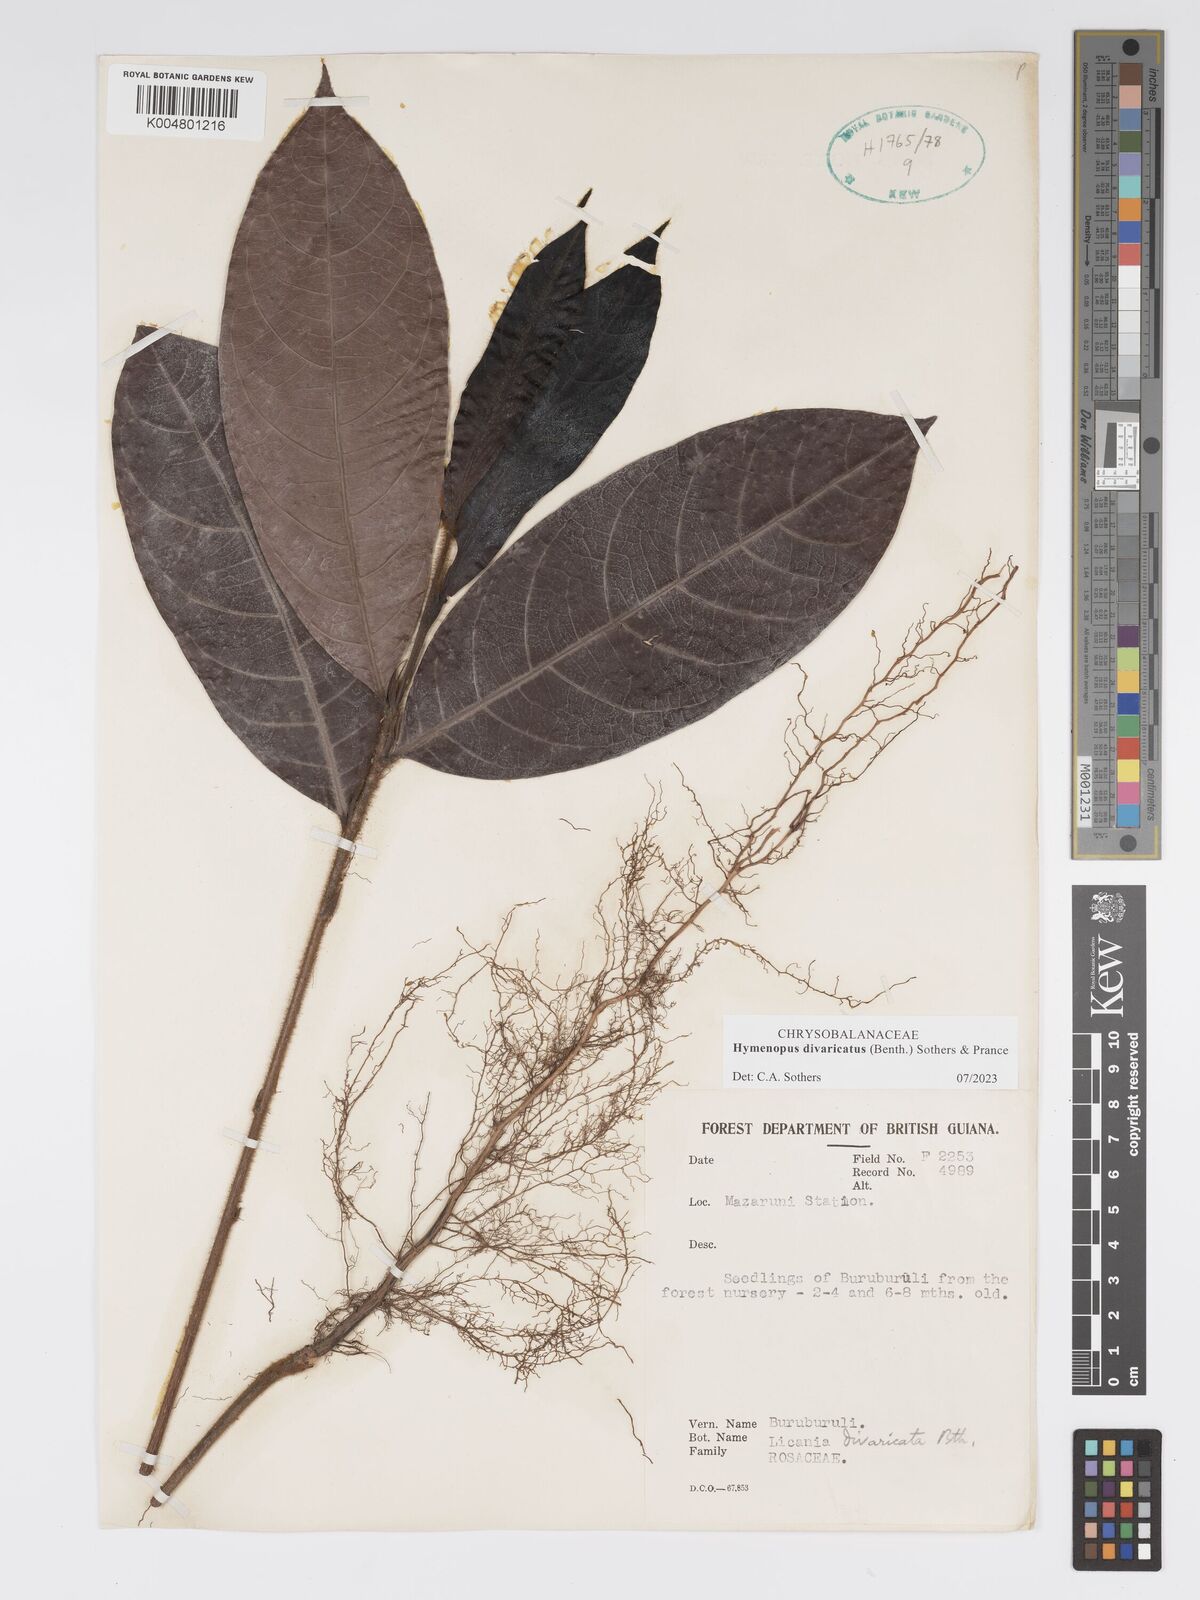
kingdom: Plantae
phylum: Tracheophyta
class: Magnoliopsida
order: Malpighiales
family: Chrysobalanaceae
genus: Hymenopus
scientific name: Hymenopus divaricatus
